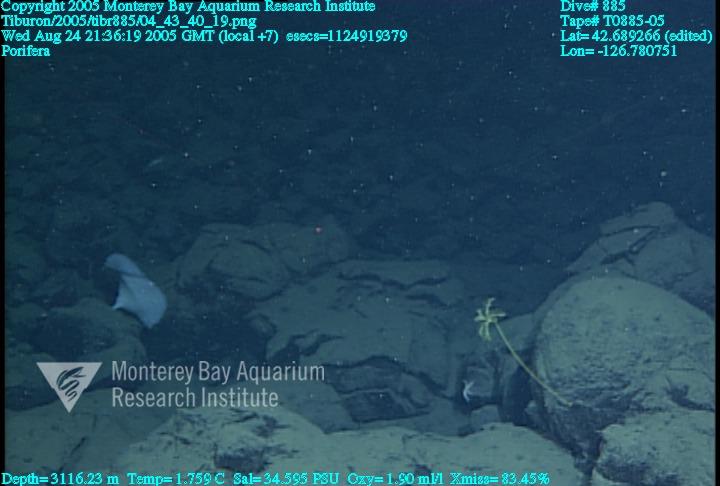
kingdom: Animalia
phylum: Porifera
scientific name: Porifera
